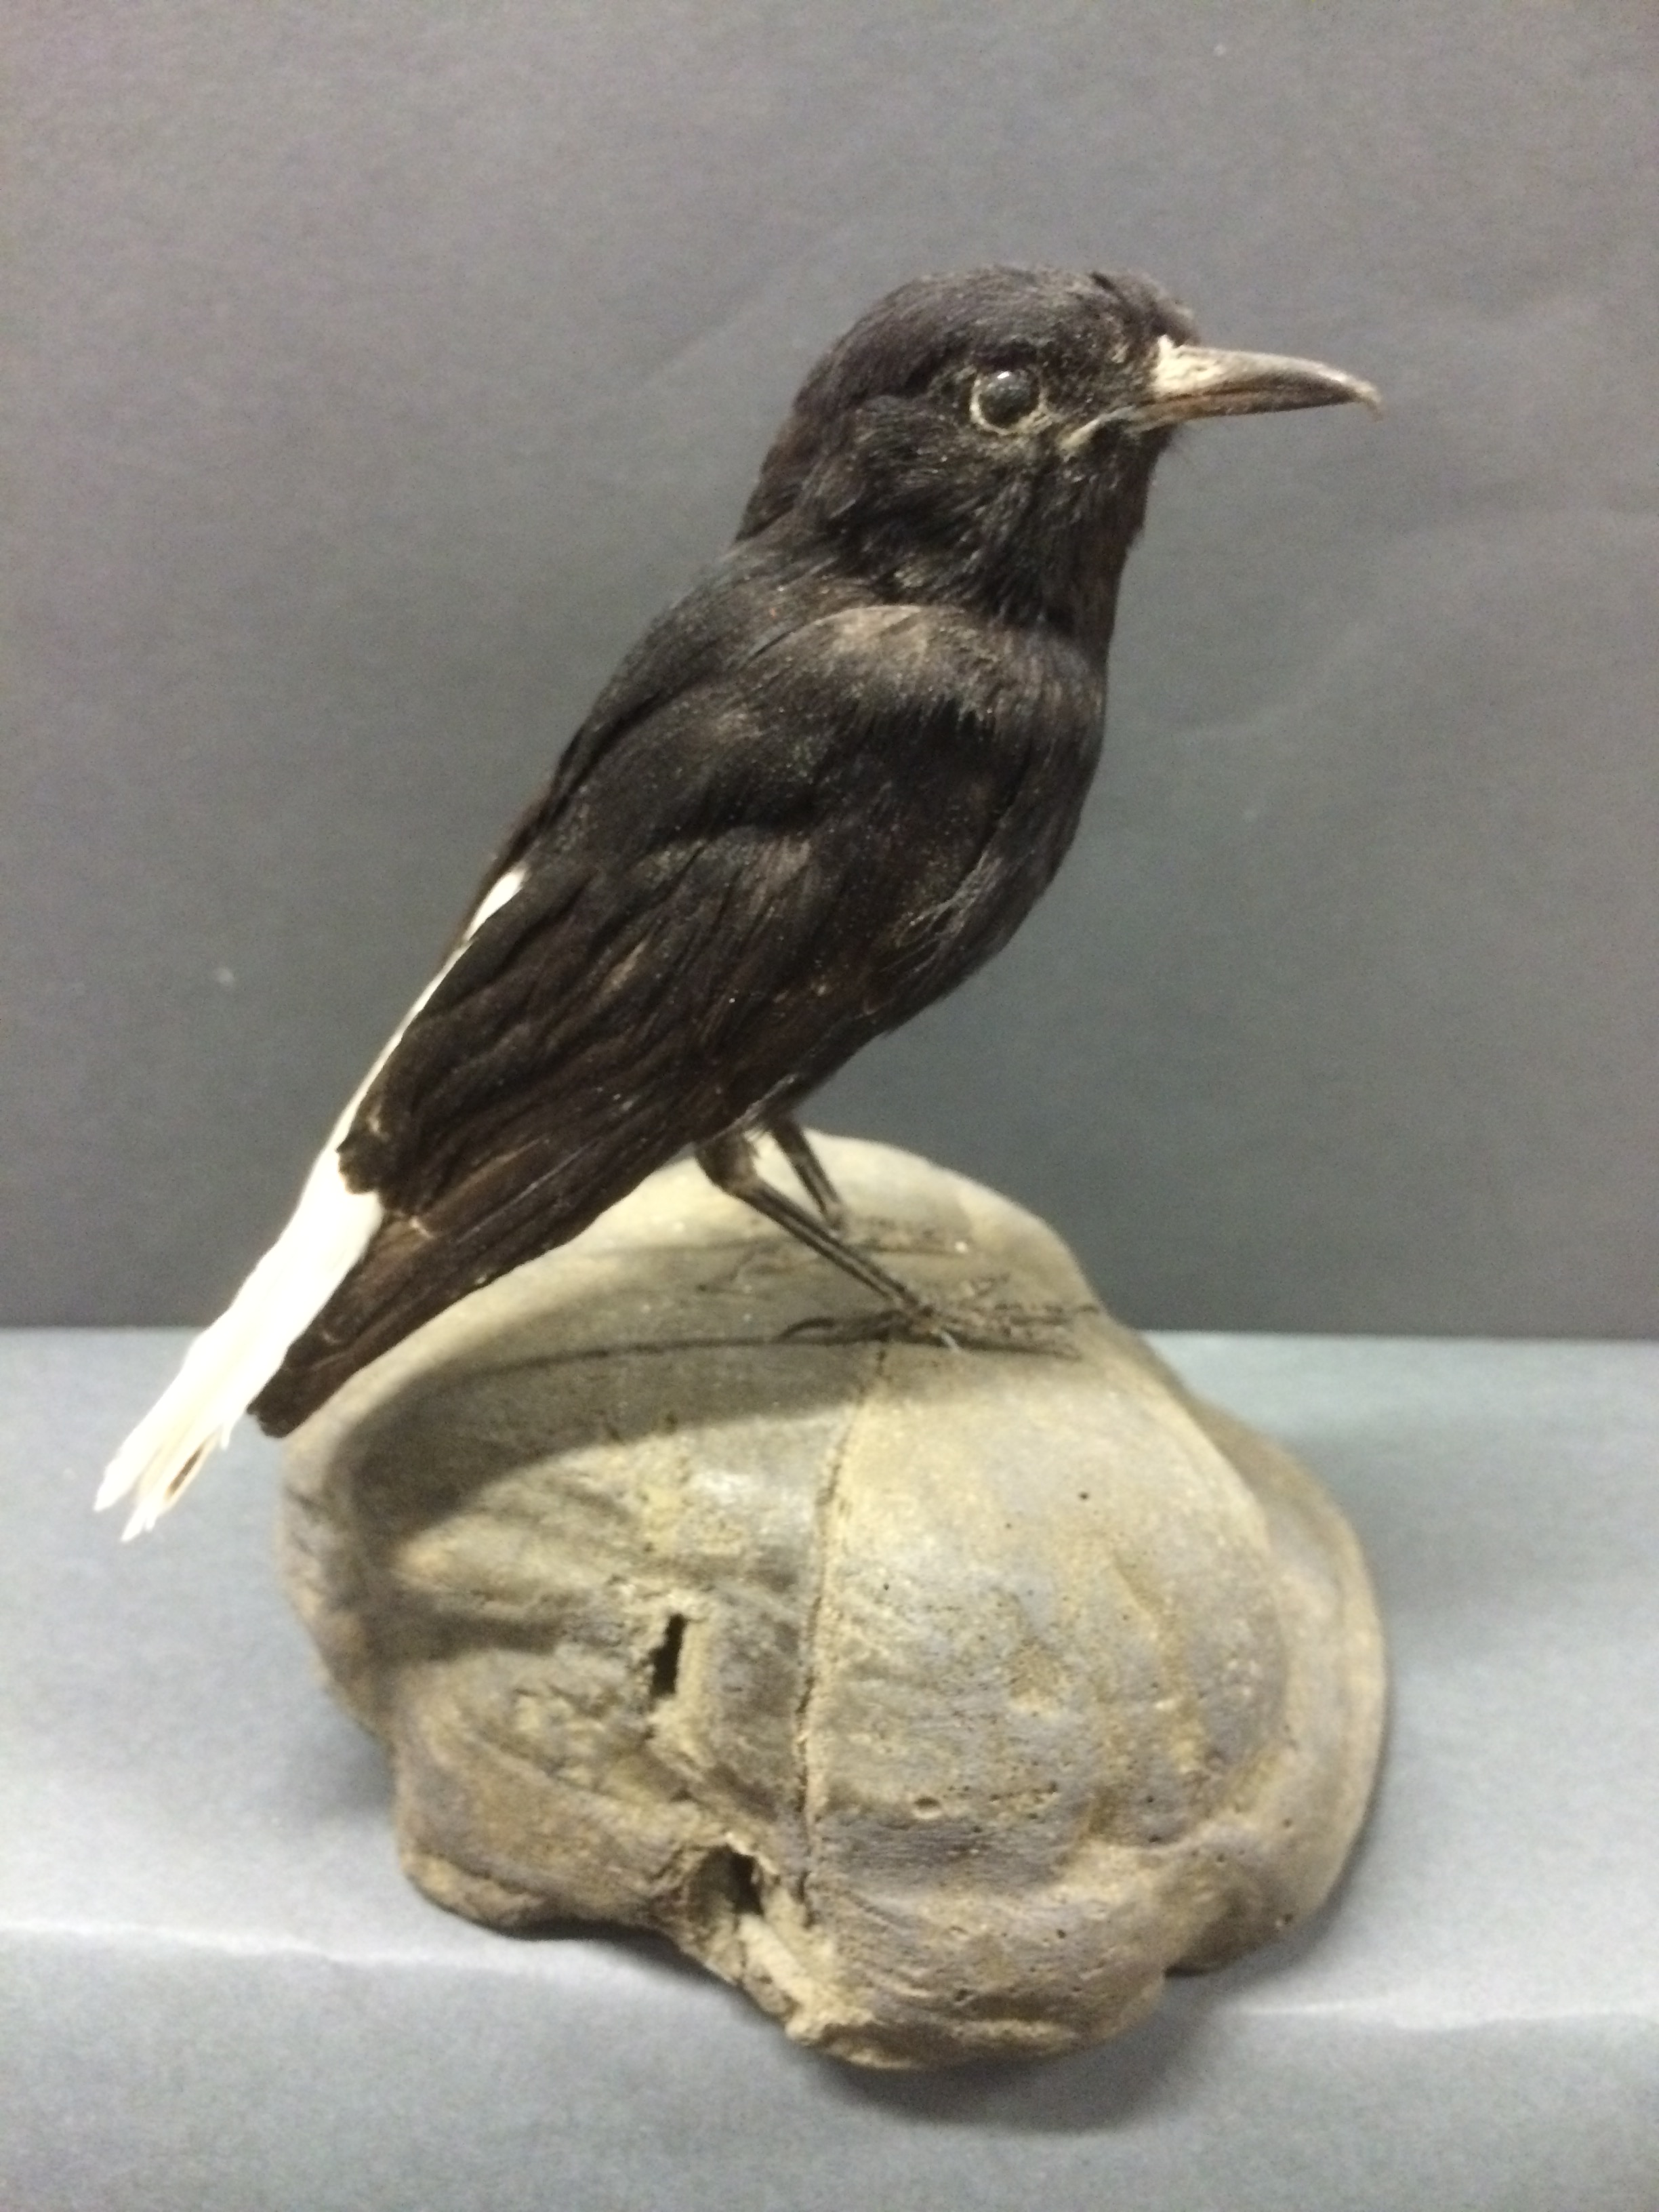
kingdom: Animalia
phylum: Chordata
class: Aves
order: Passeriformes
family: Muscicapidae
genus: Oenanthe
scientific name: Oenanthe leucopyga
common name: White-crowned wheatear
